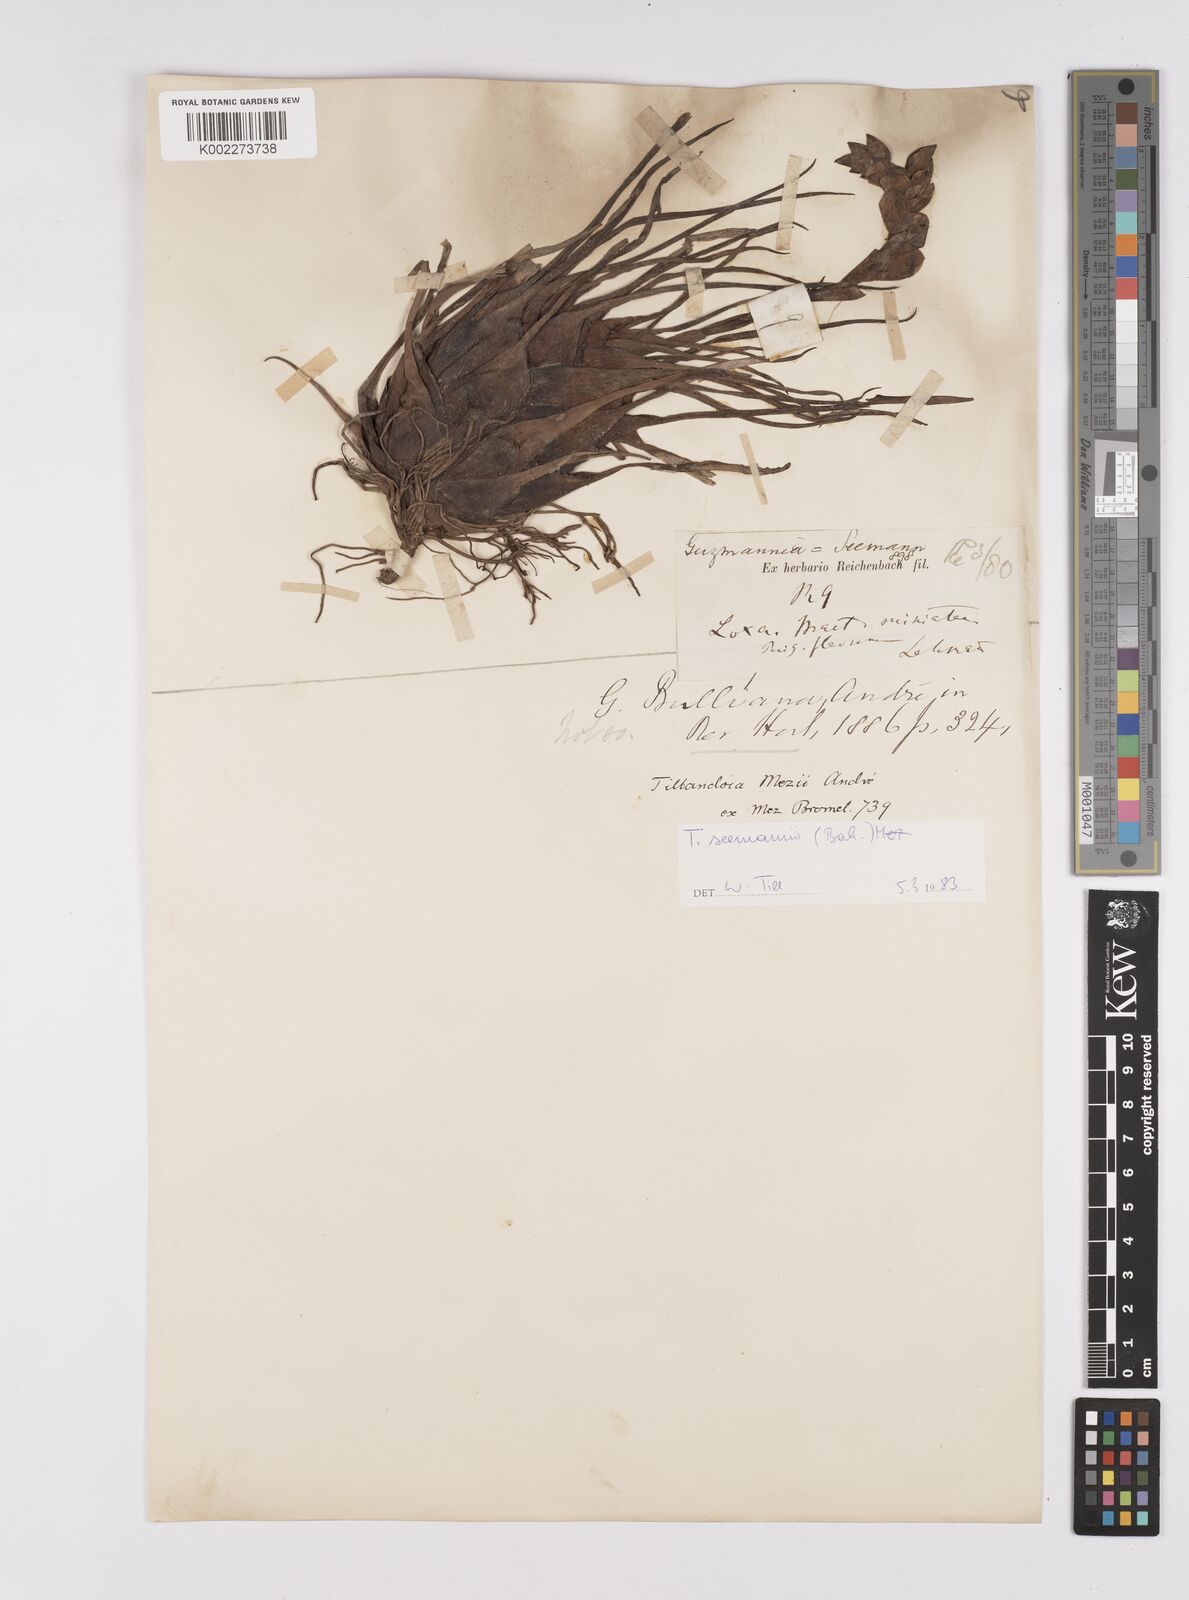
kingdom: Plantae
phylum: Tracheophyta
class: Liliopsida
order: Poales
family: Bromeliaceae
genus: Racinaea
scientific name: Racinaea seemannii
